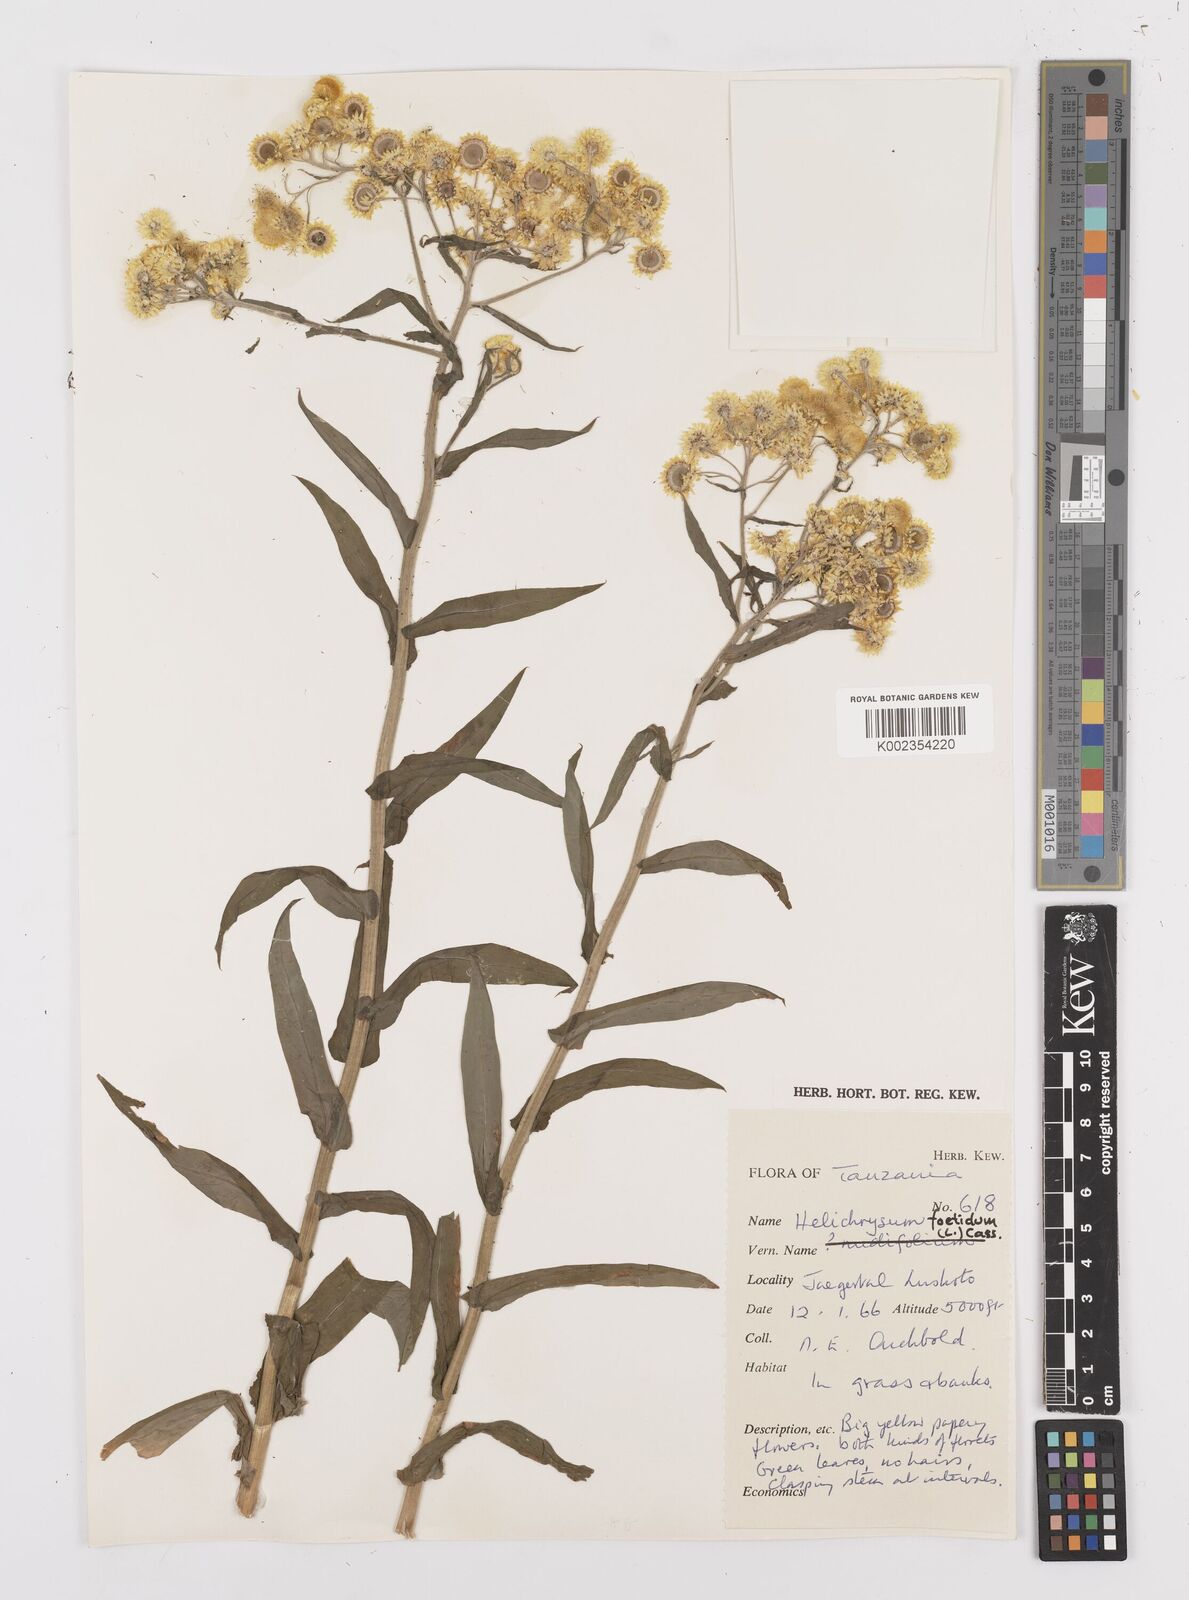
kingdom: Plantae
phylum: Tracheophyta
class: Magnoliopsida
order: Asterales
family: Asteraceae
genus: Helichrysum
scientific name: Helichrysum
